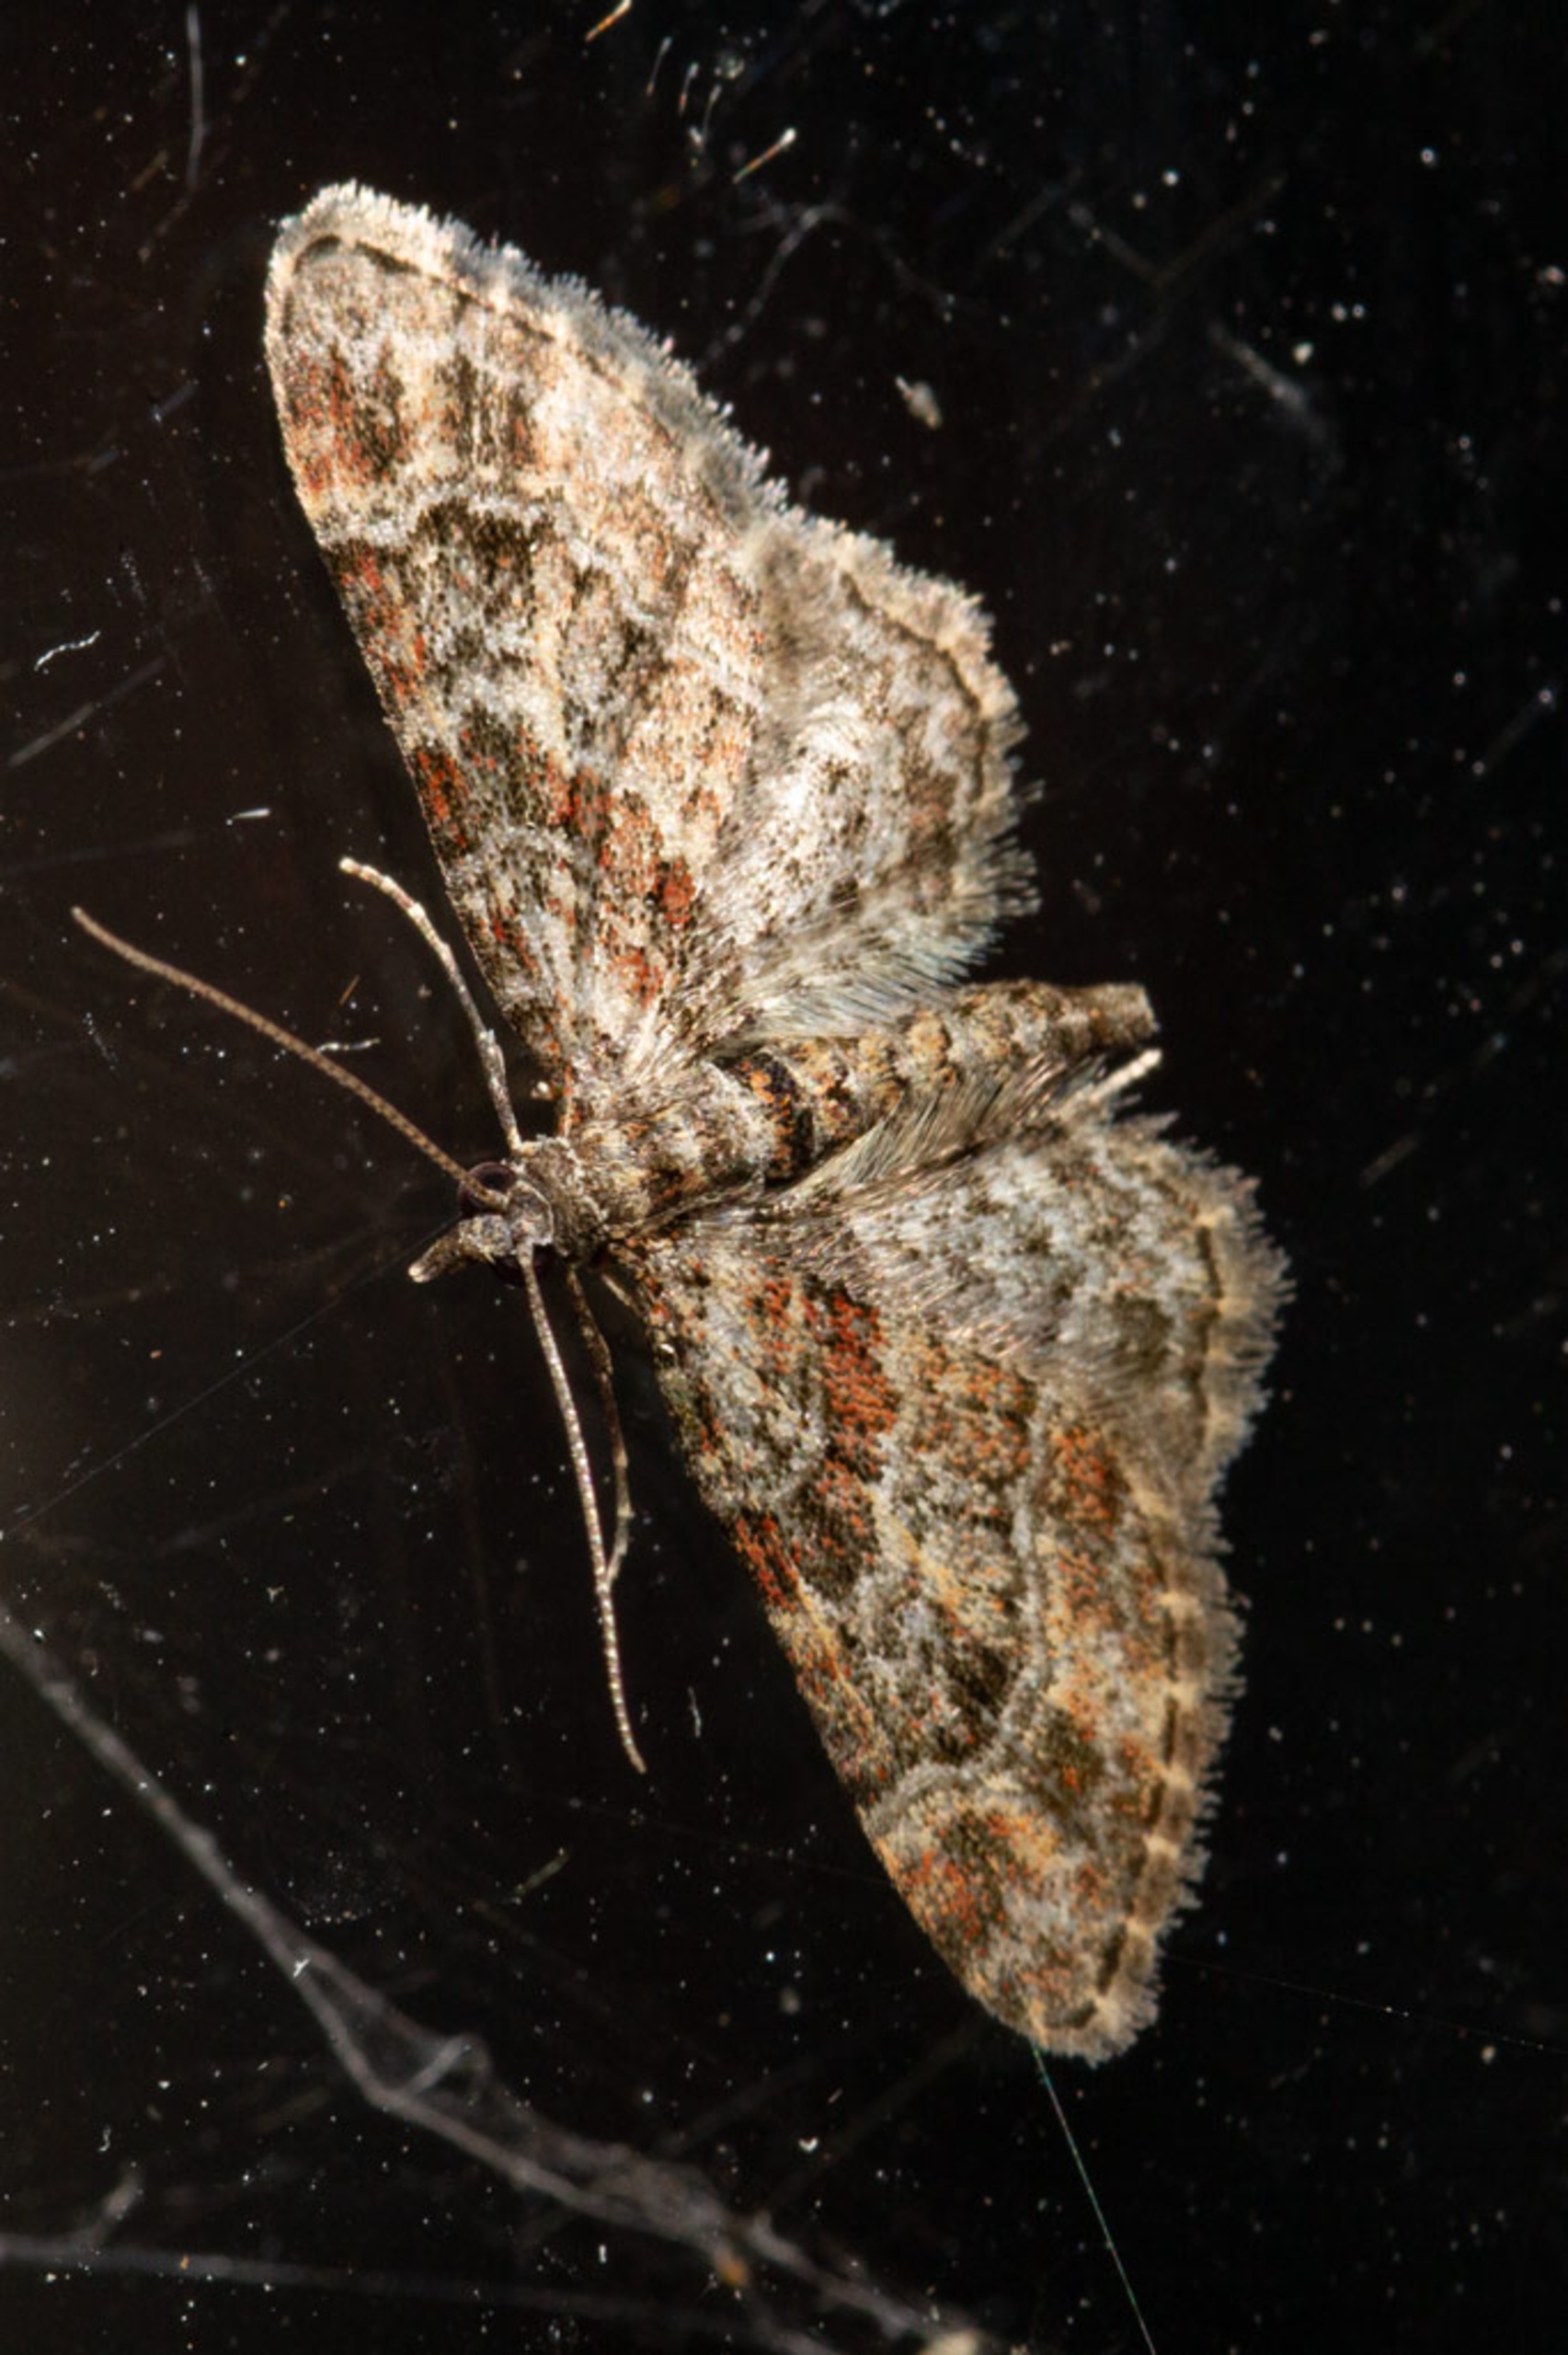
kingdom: Animalia
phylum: Arthropoda
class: Insecta
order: Lepidoptera
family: Geometridae
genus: Gymnoscelis
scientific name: Gymnoscelis rufifasciata
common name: Rødbåndet dværgmåler
